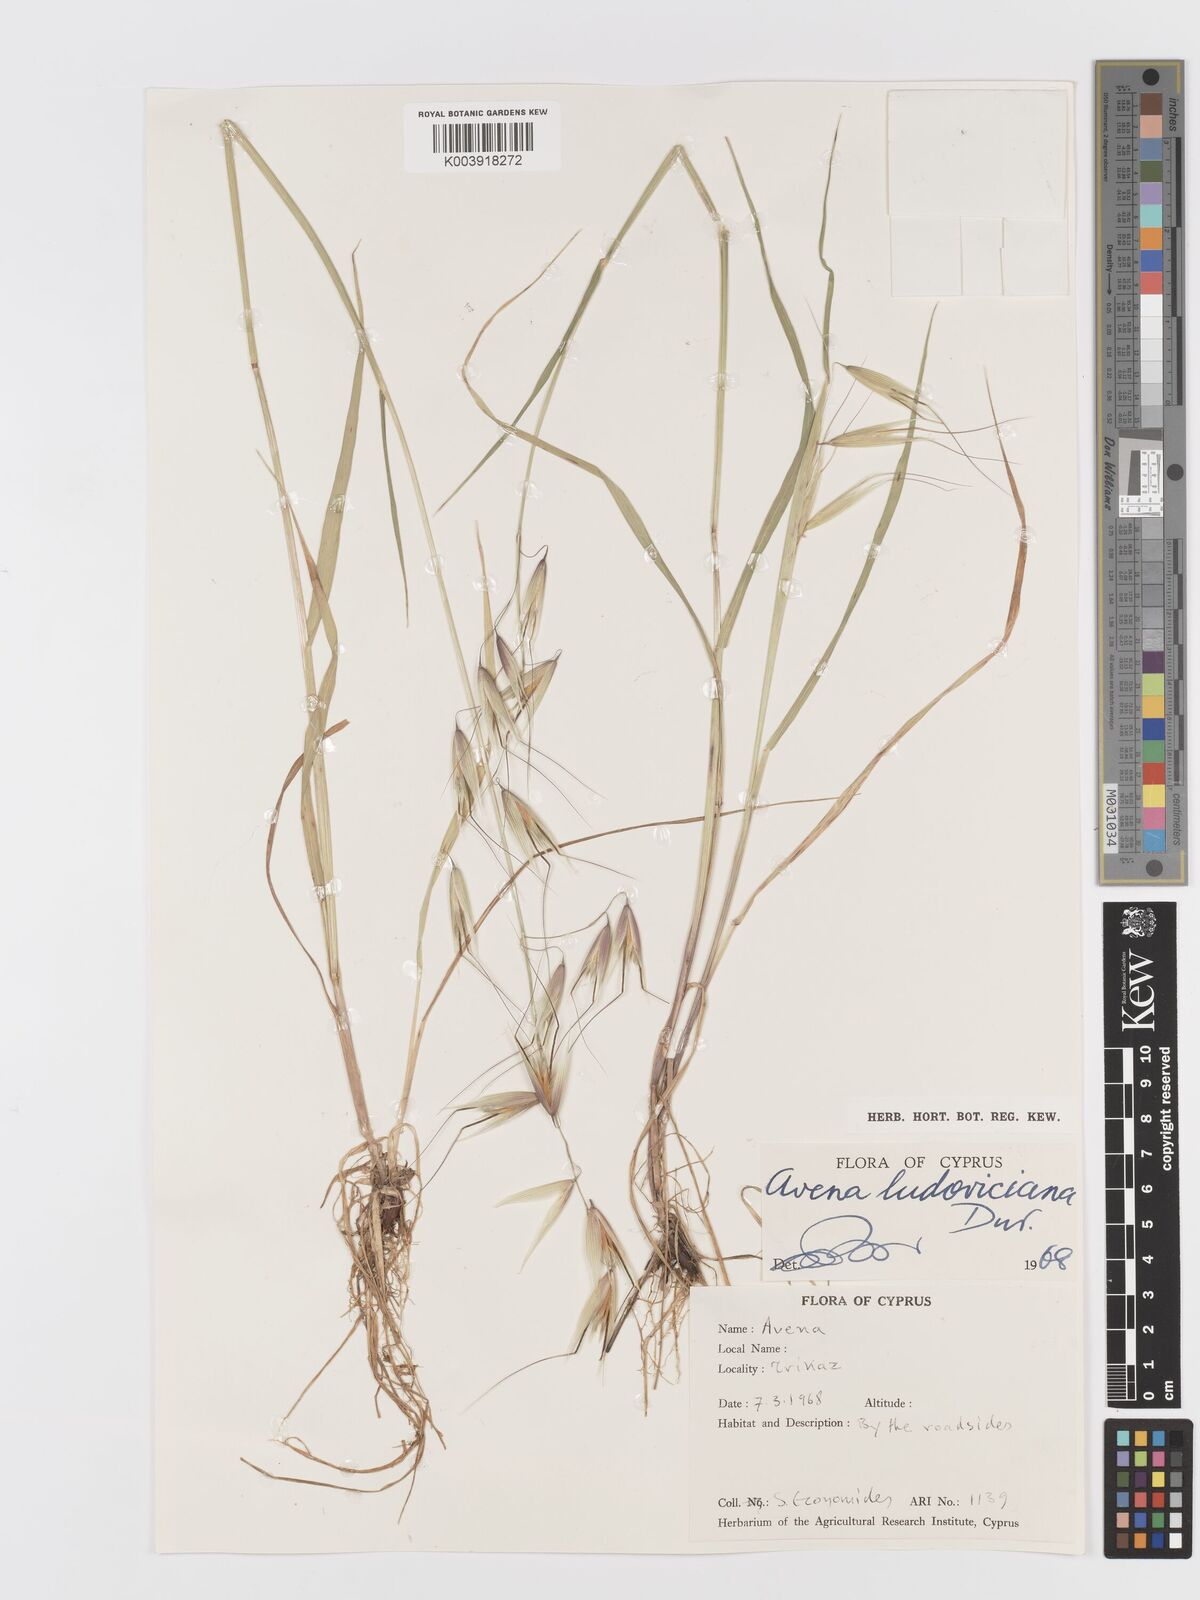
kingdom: Plantae
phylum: Tracheophyta
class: Liliopsida
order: Poales
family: Poaceae
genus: Avena
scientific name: Avena sterilis
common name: Animated oat
